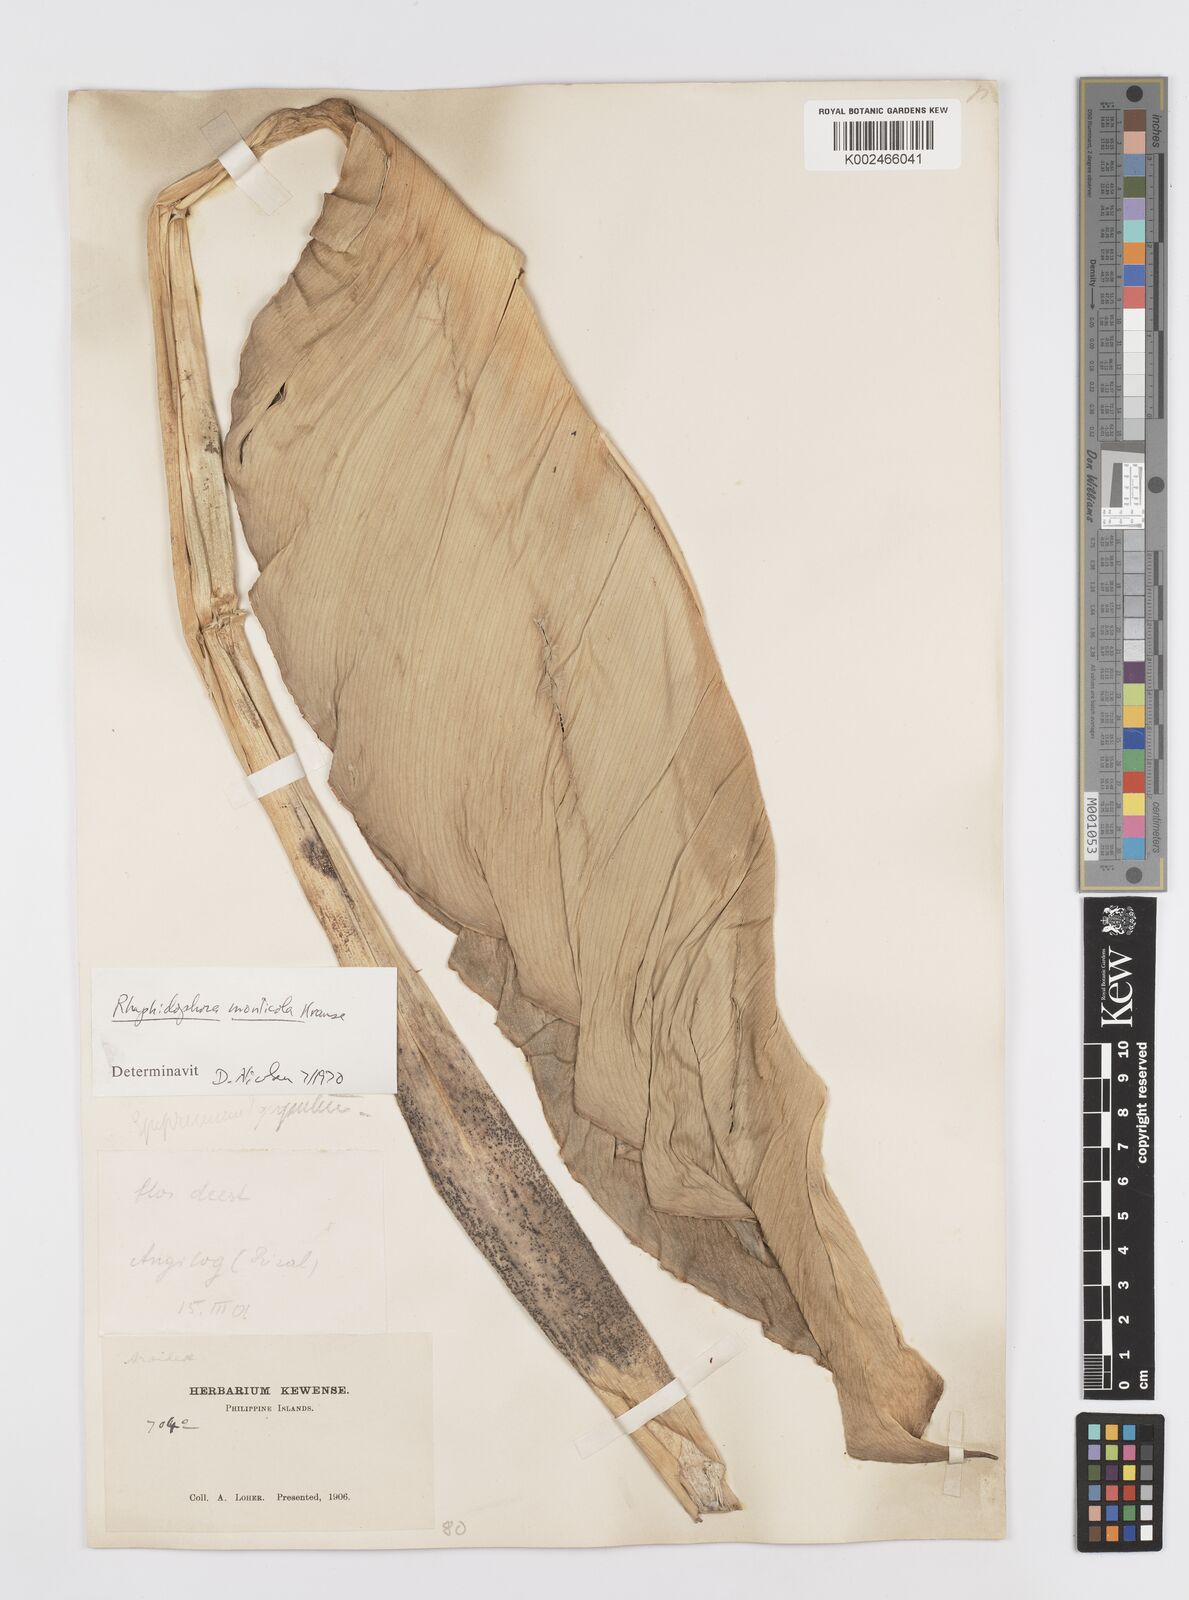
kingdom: Plantae
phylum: Tracheophyta
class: Liliopsida
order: Alismatales
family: Araceae
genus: Rhaphidophora
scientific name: Rhaphidophora monticola
